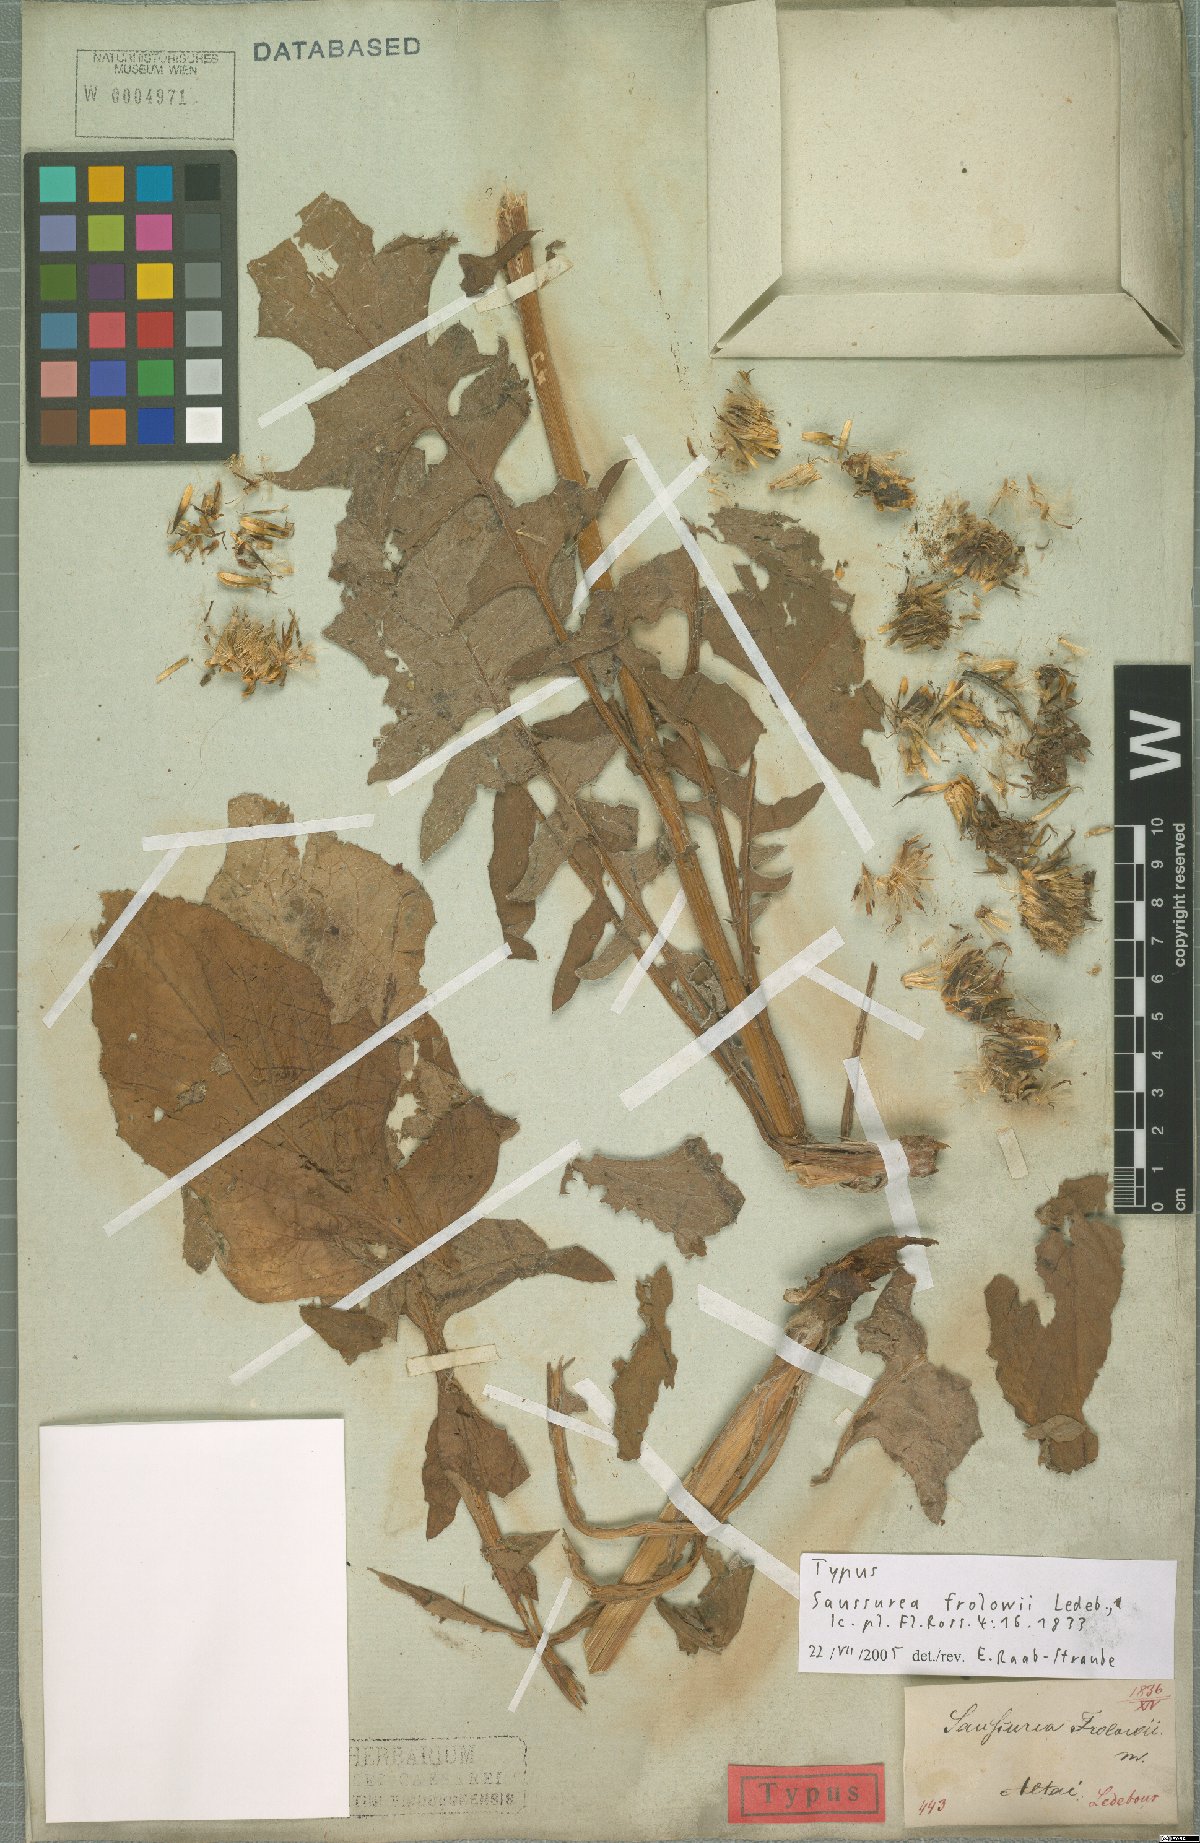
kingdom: Plantae
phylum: Tracheophyta
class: Magnoliopsida
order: Asterales
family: Asteraceae
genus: Dolomiaea
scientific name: Dolomiaea frolowii
